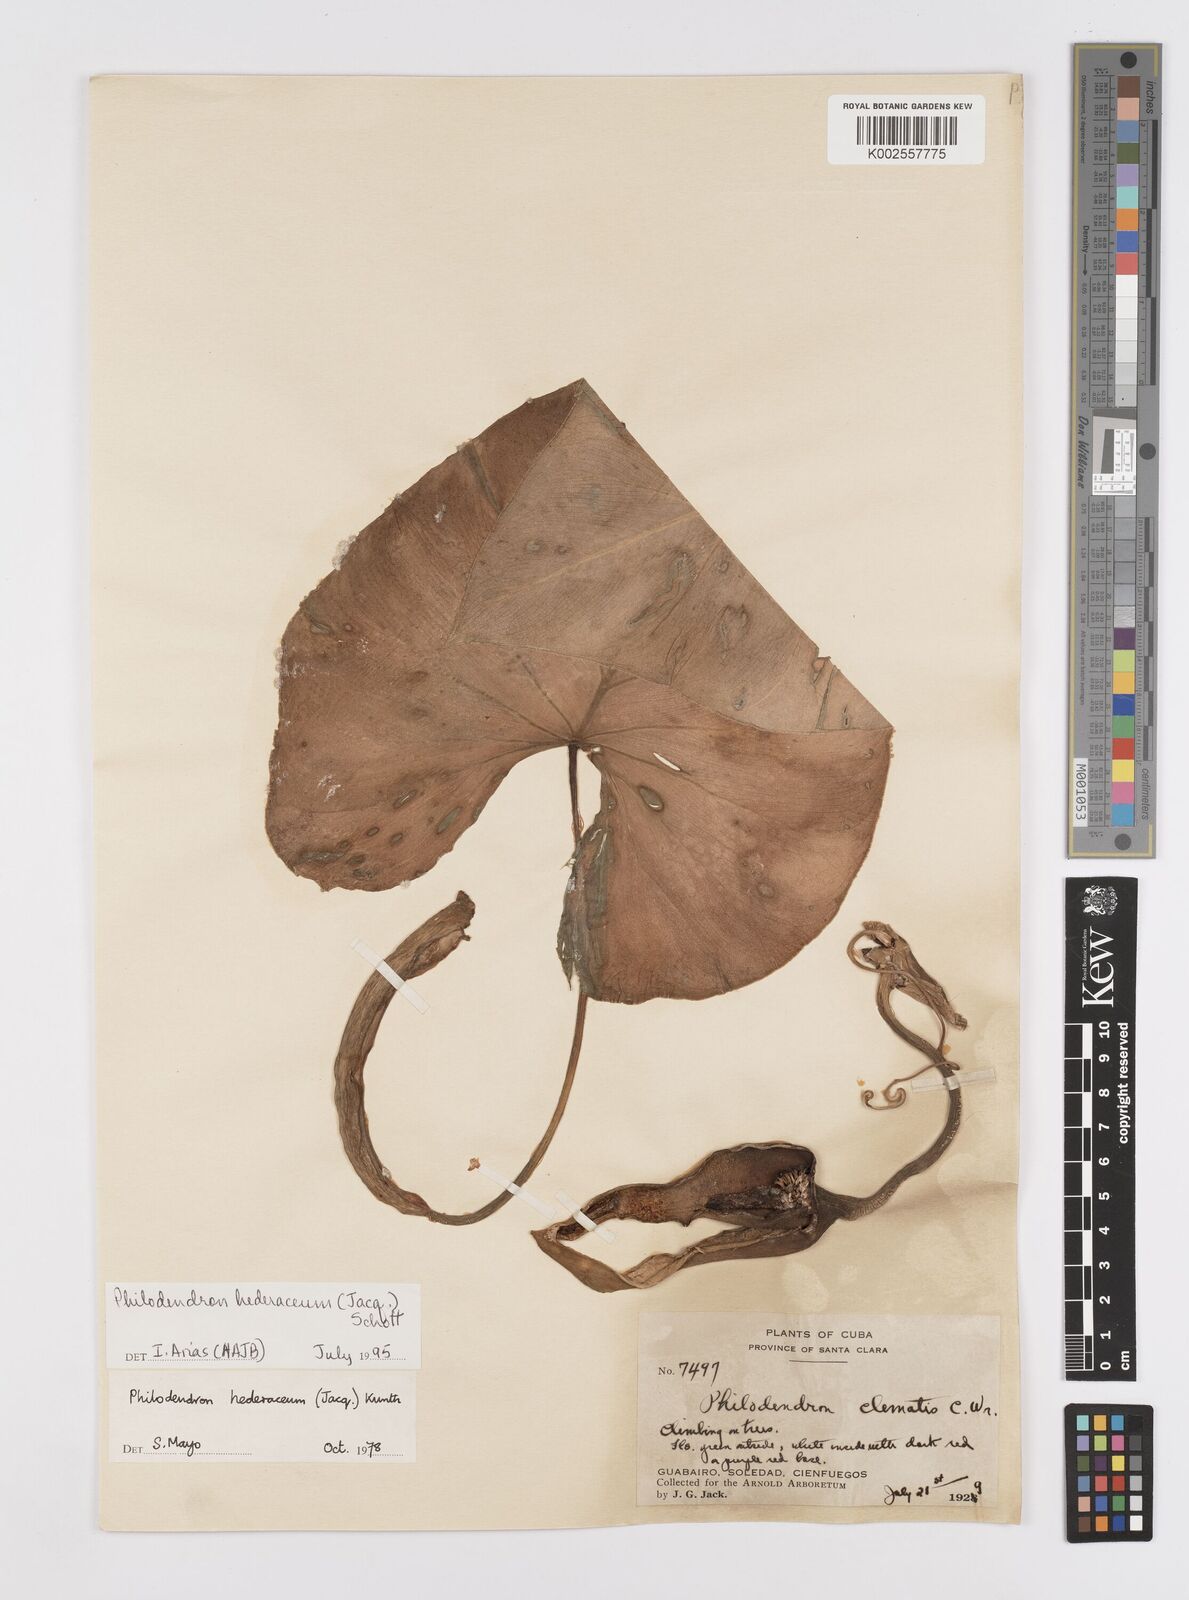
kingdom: Plantae
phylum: Tracheophyta
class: Liliopsida
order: Alismatales
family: Araceae
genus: Philodendron
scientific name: Philodendron hederaceum
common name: Vilevine
